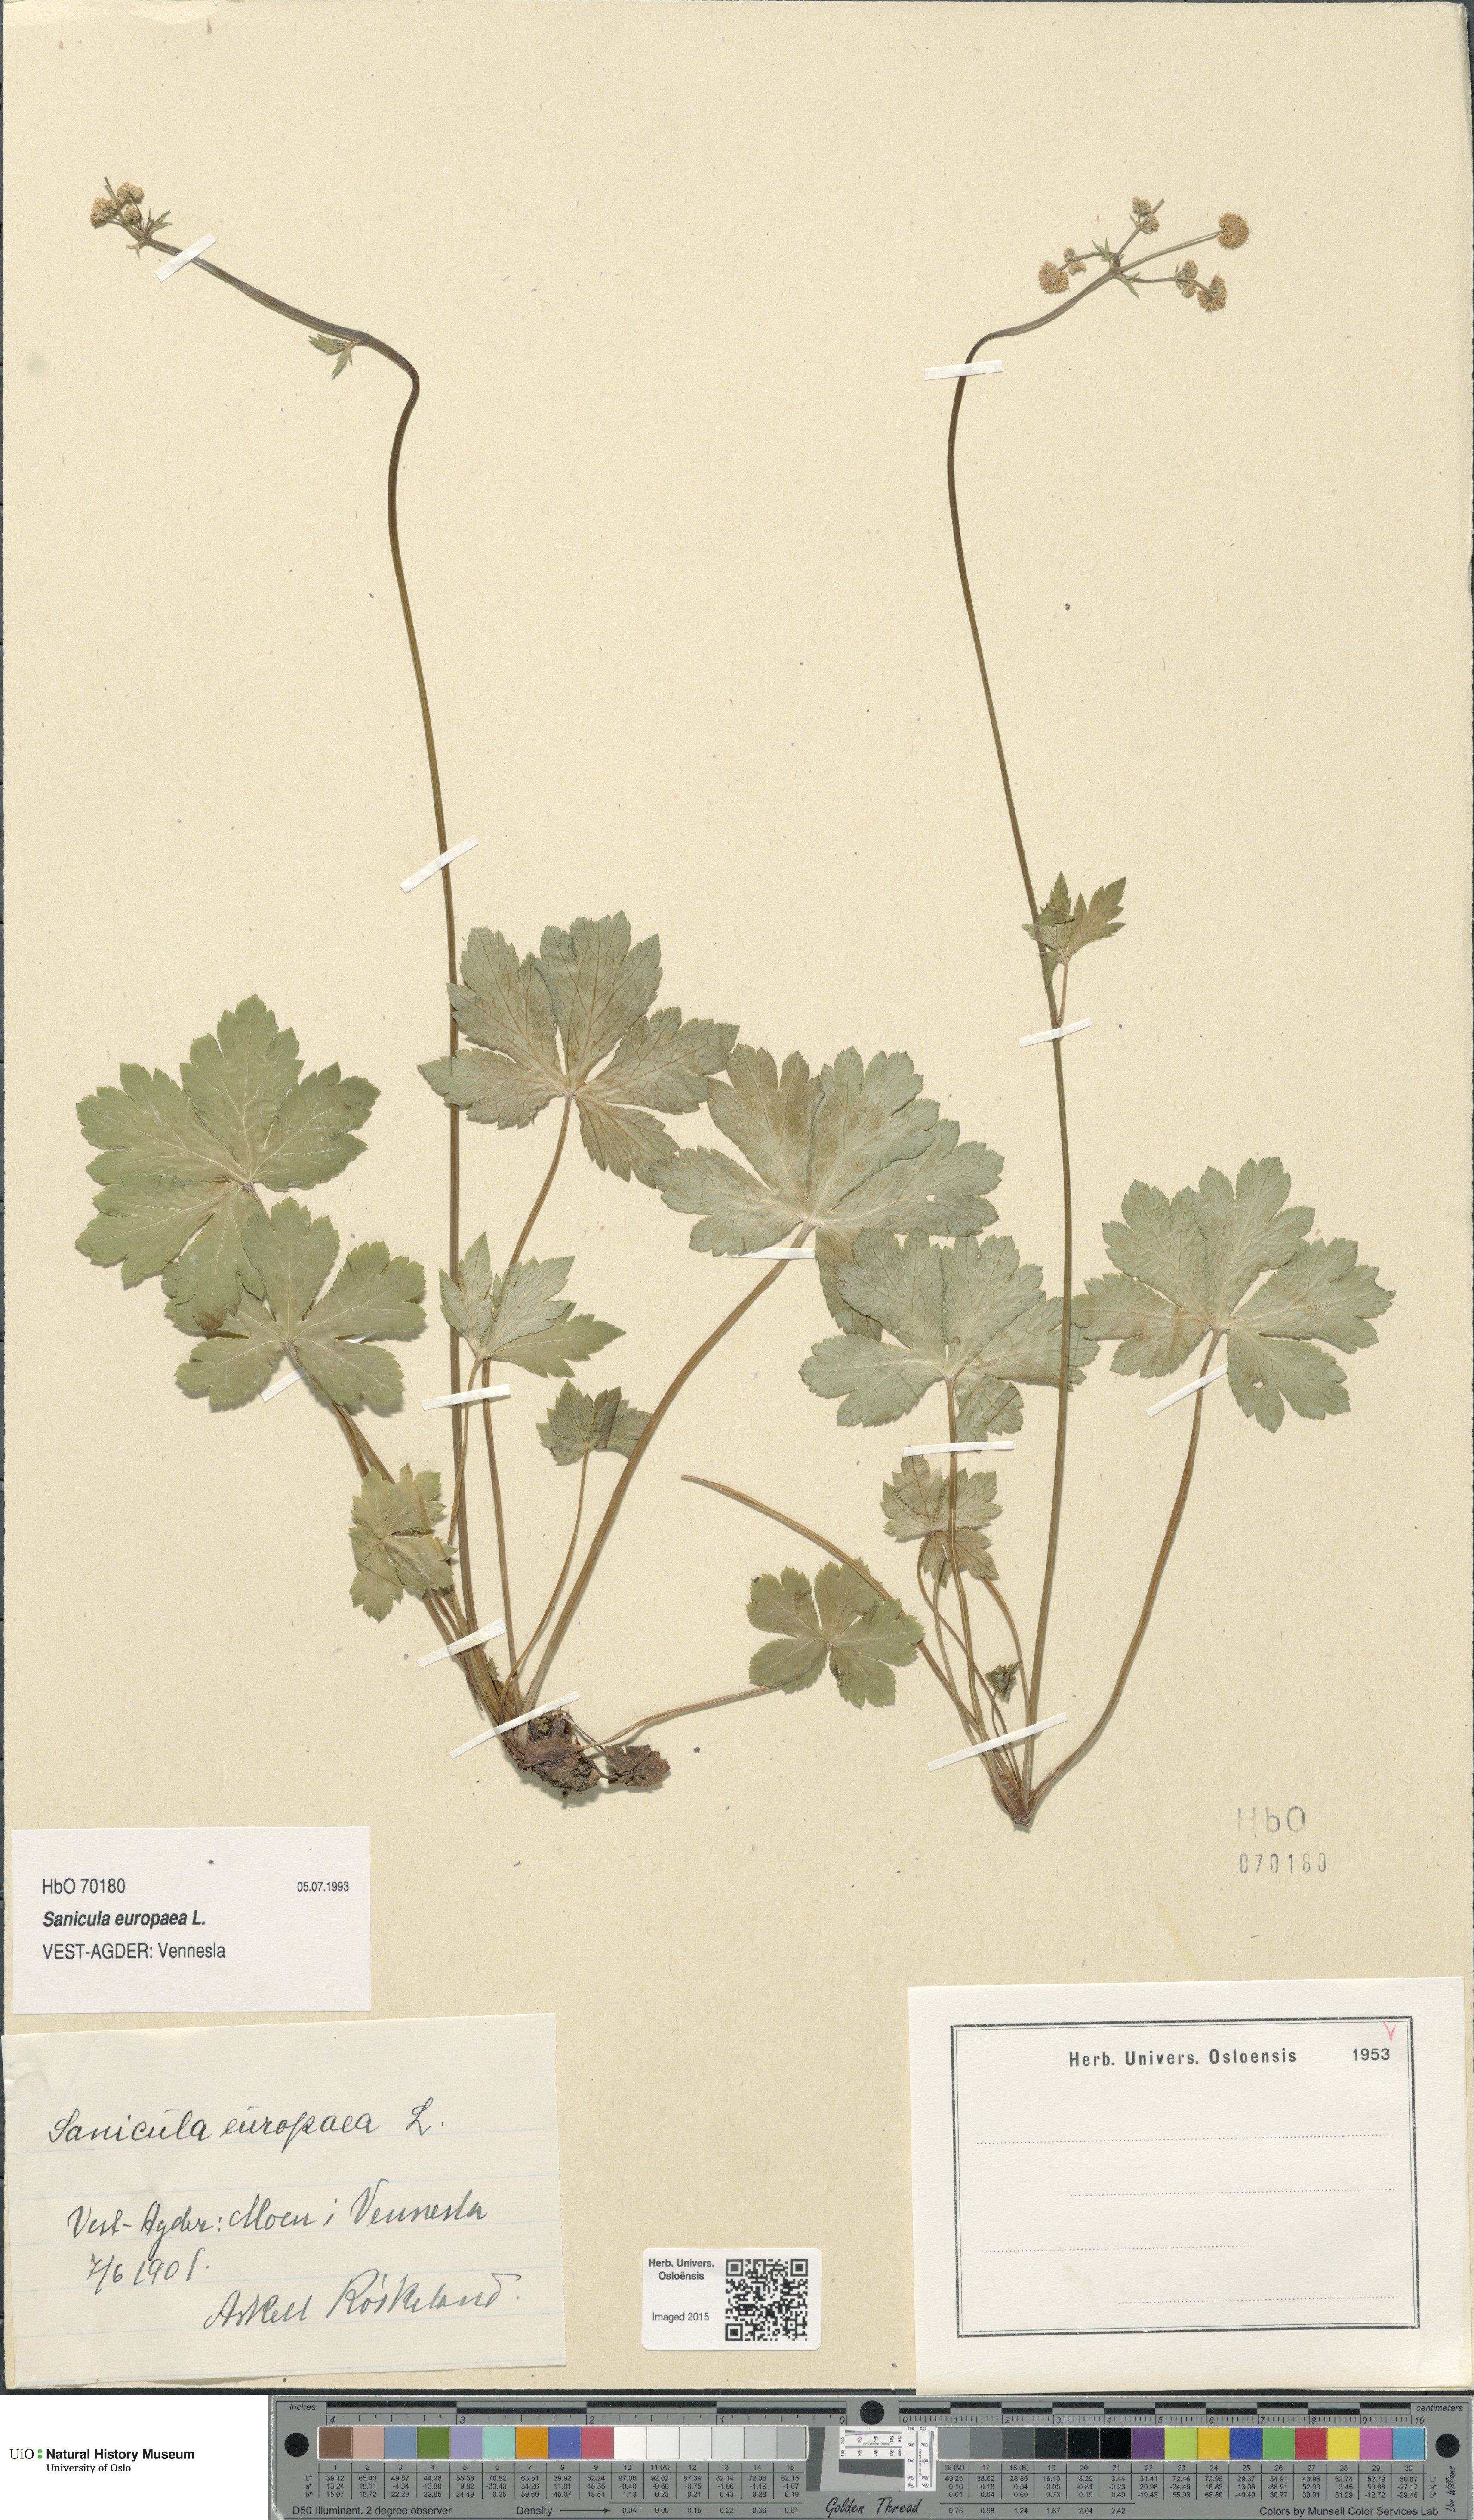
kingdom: Plantae
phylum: Tracheophyta
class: Magnoliopsida
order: Apiales
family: Apiaceae
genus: Sanicula
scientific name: Sanicula europaea
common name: Sanicle
